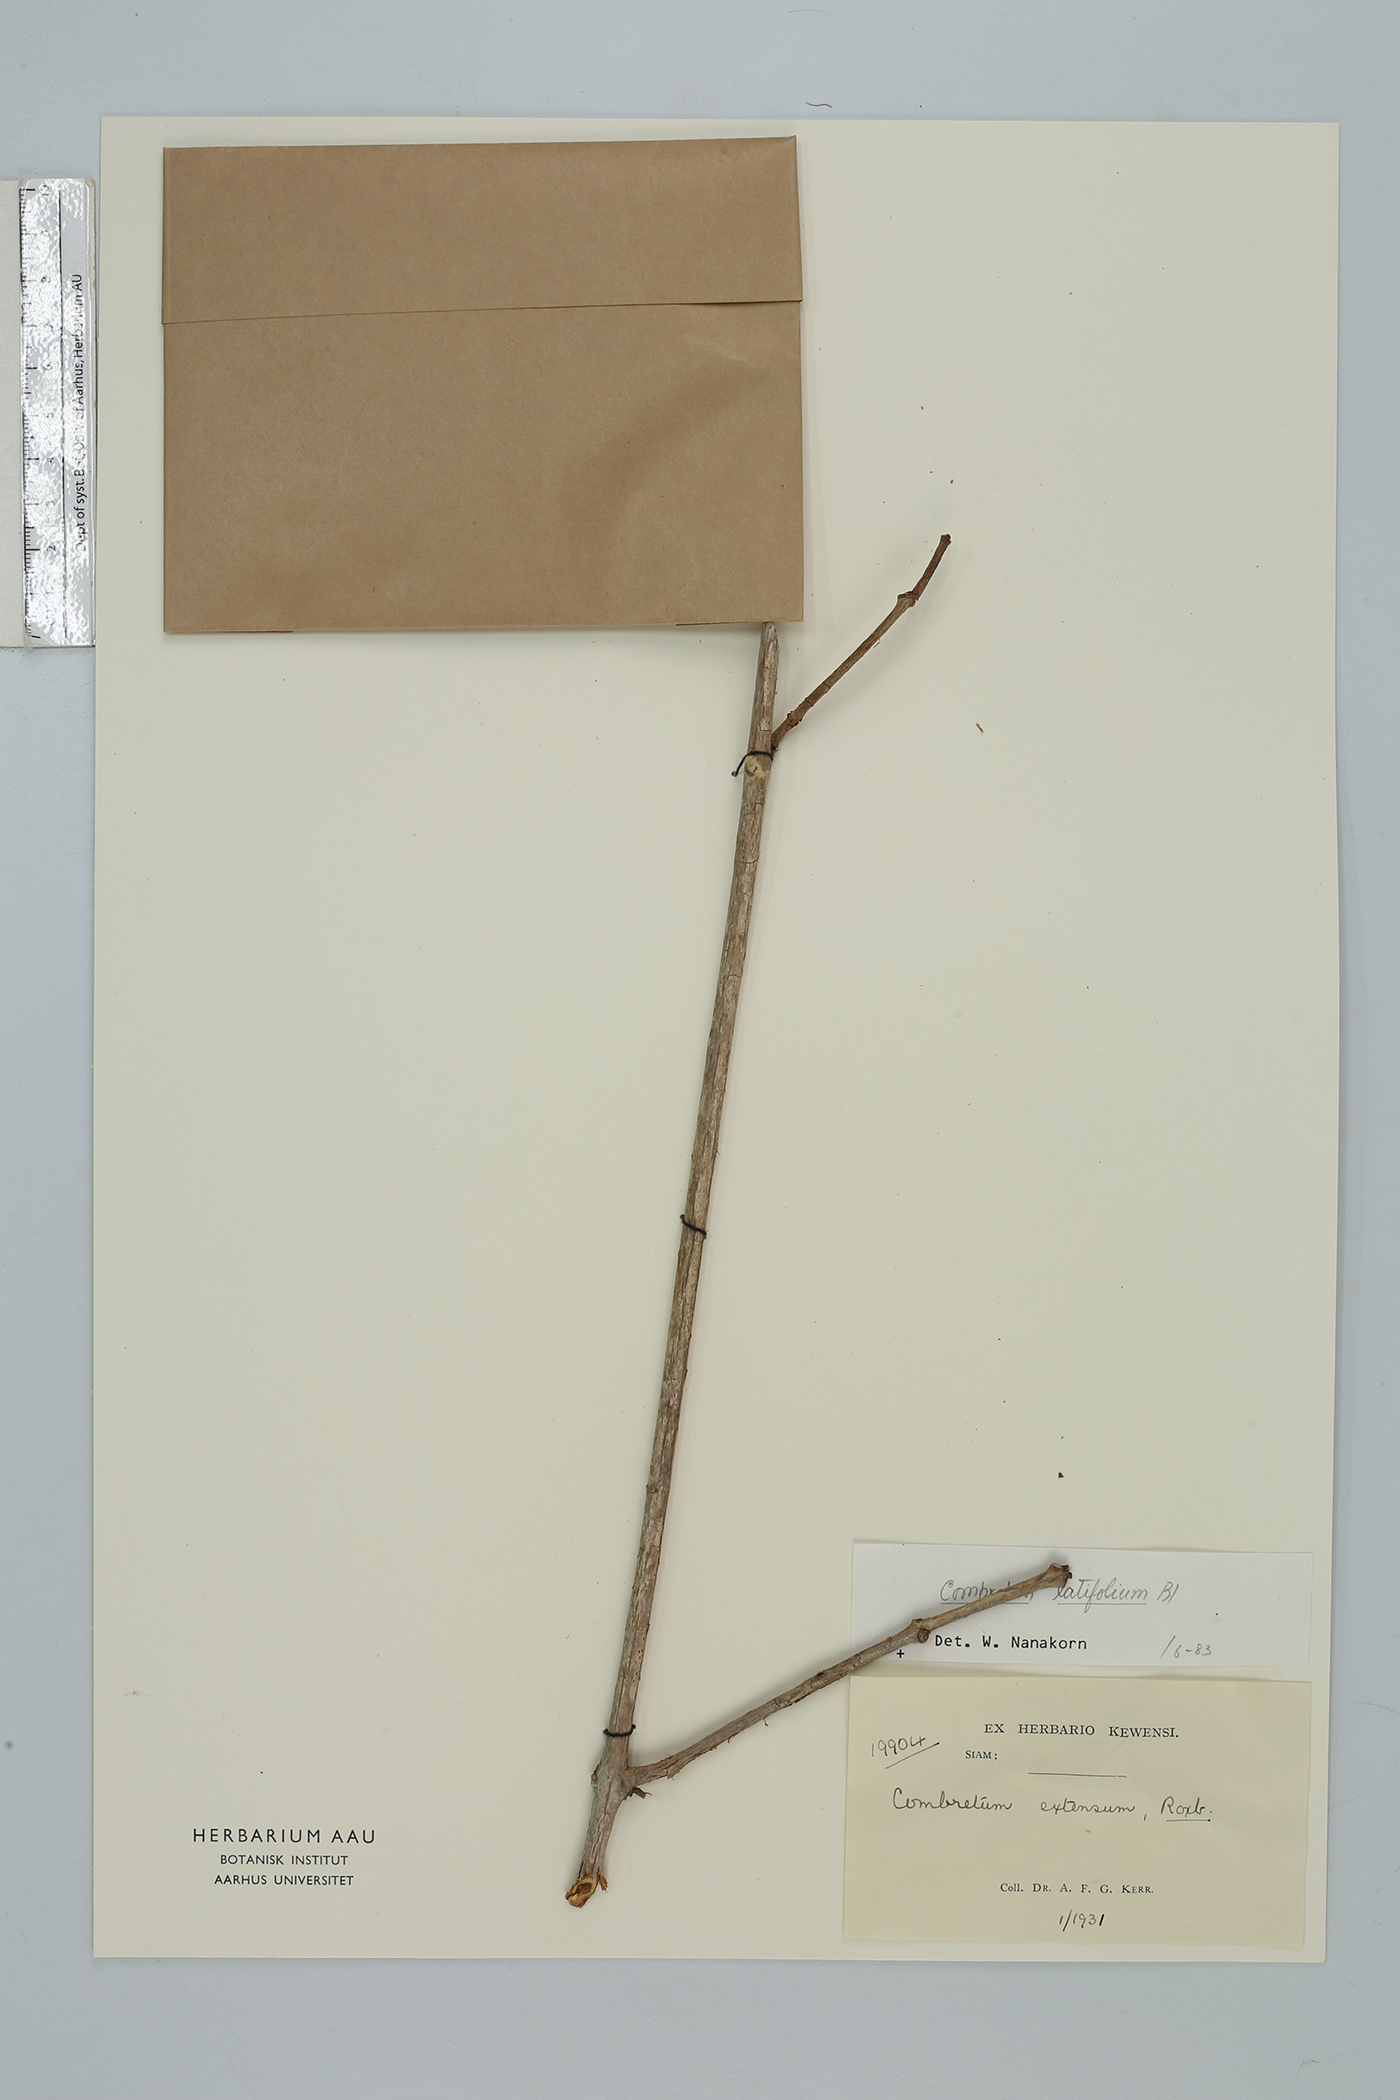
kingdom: Plantae
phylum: Tracheophyta
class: Magnoliopsida
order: Myrtales
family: Combretaceae
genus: Combretum
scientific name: Combretum latifolium
